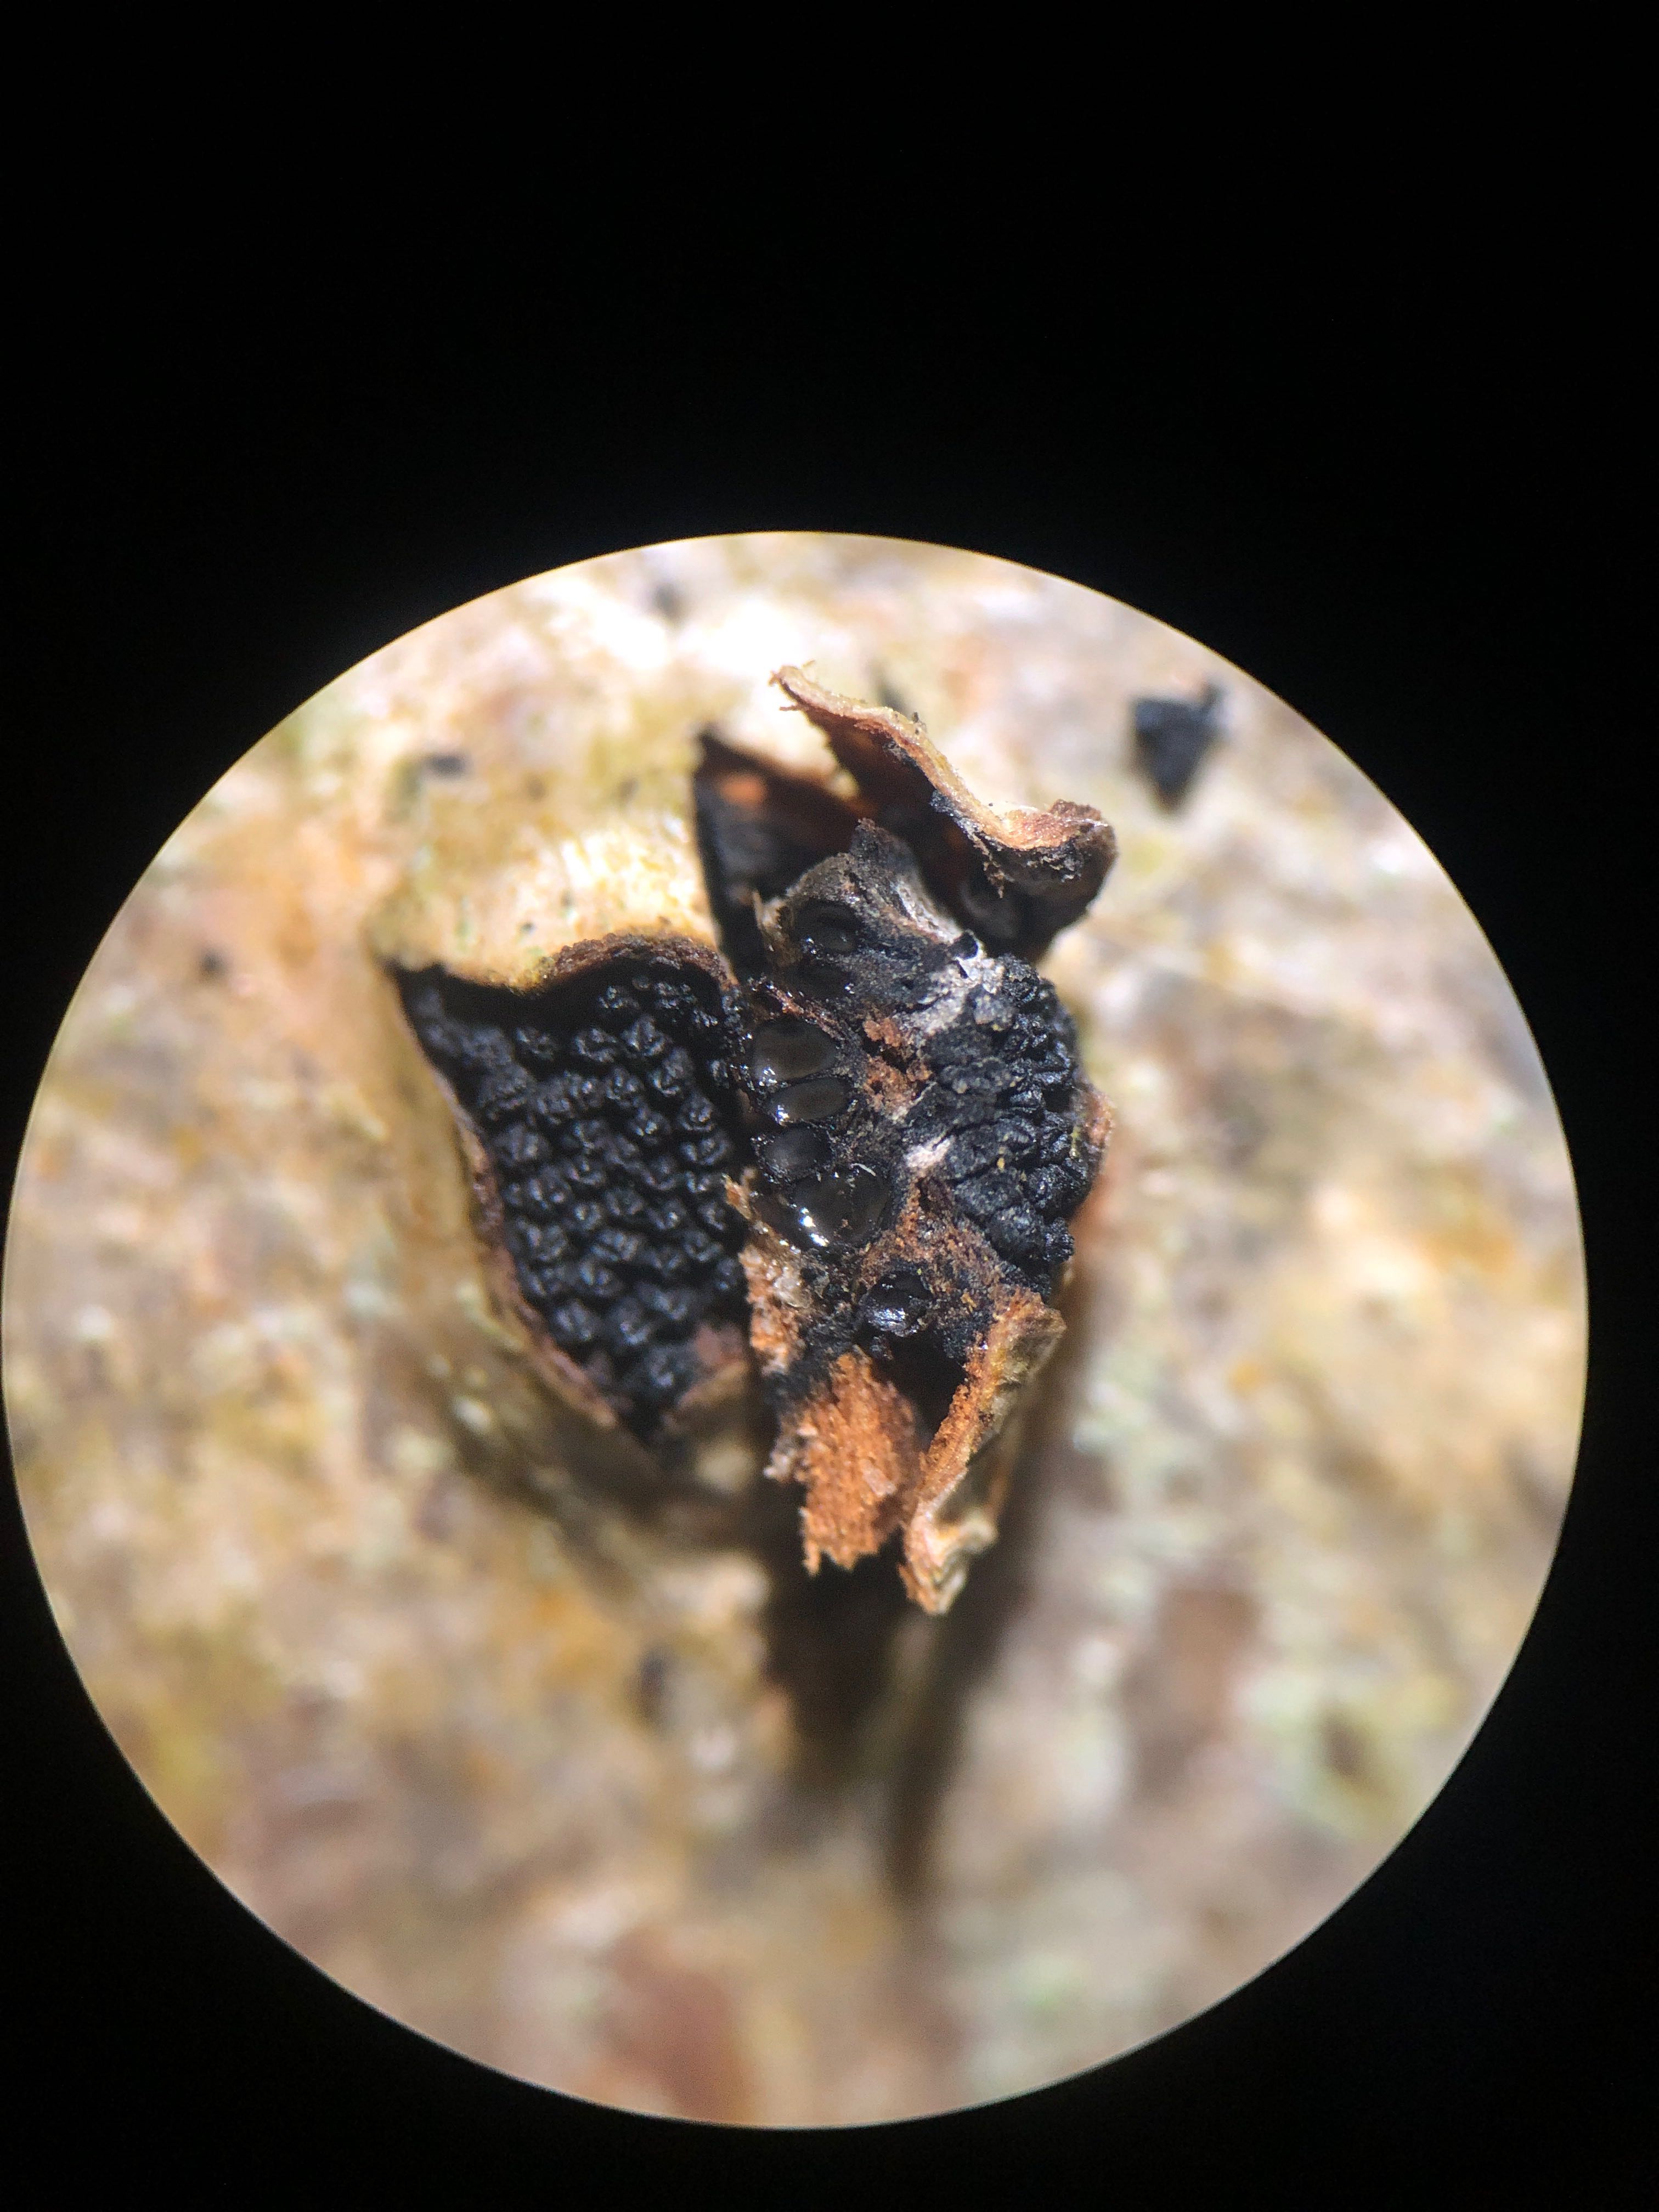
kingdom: Fungi
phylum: Ascomycota
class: Sordariomycetes
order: Xylariales
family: Diatrypaceae
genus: Eutypella
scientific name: Eutypella sorbi
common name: rønne-kulskorpe
